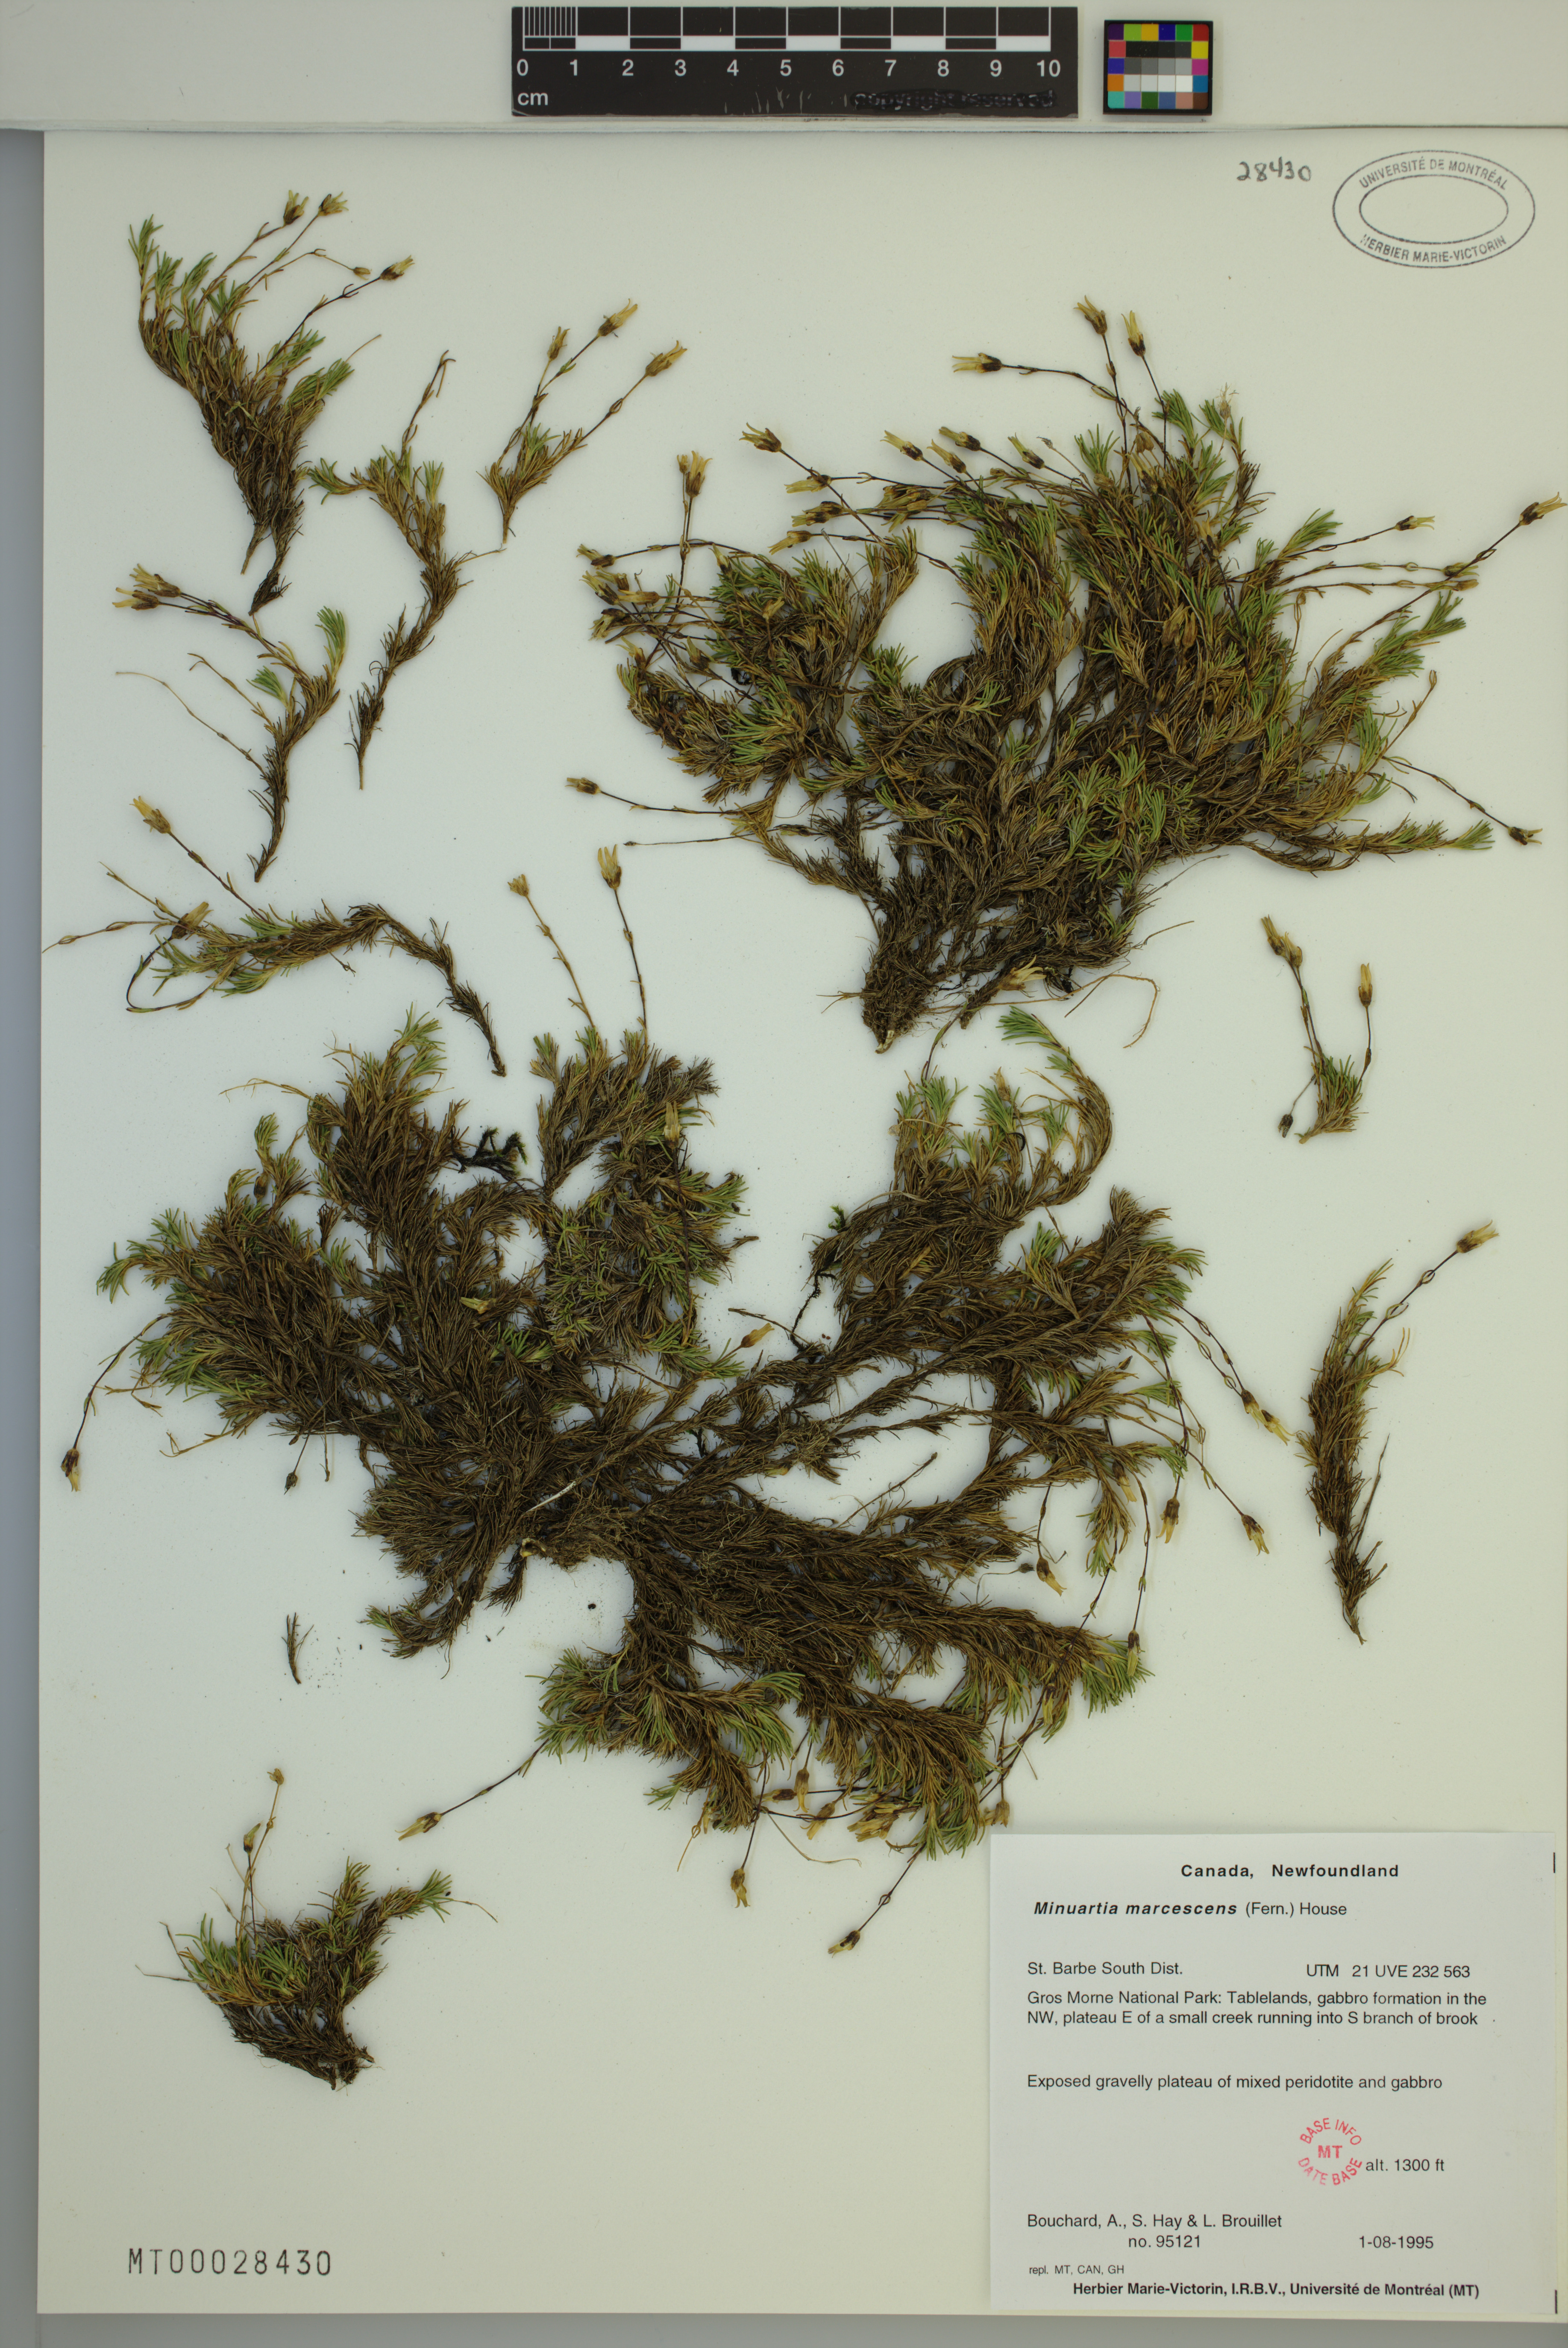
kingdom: Plantae
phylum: Tracheophyta
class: Magnoliopsida
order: Caryophyllales
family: Caryophyllaceae
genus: Cherleria
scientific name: Cherleria marcescens
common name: Dry-leaved sandwort
